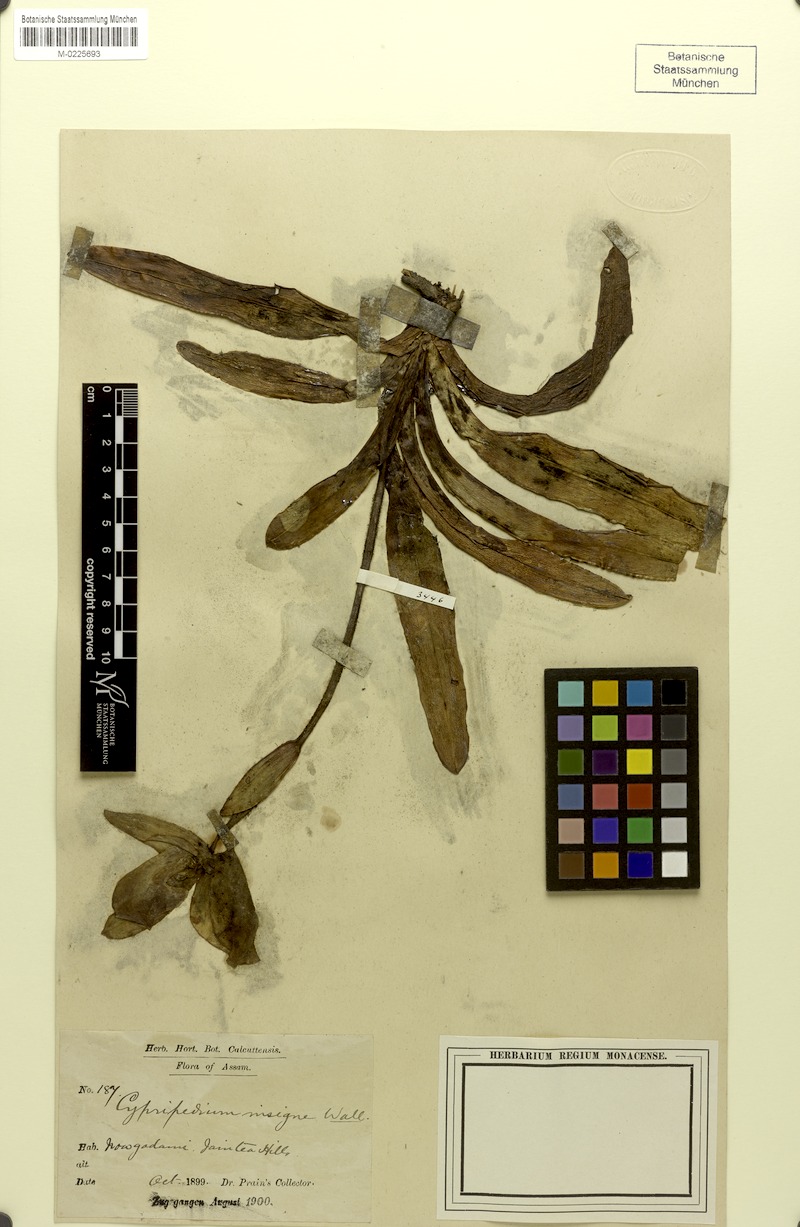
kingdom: Plantae
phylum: Tracheophyta
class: Liliopsida
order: Asparagales
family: Orchidaceae
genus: Paphiopedilum
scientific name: Paphiopedilum insigne
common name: Splendid paphiopedilum
